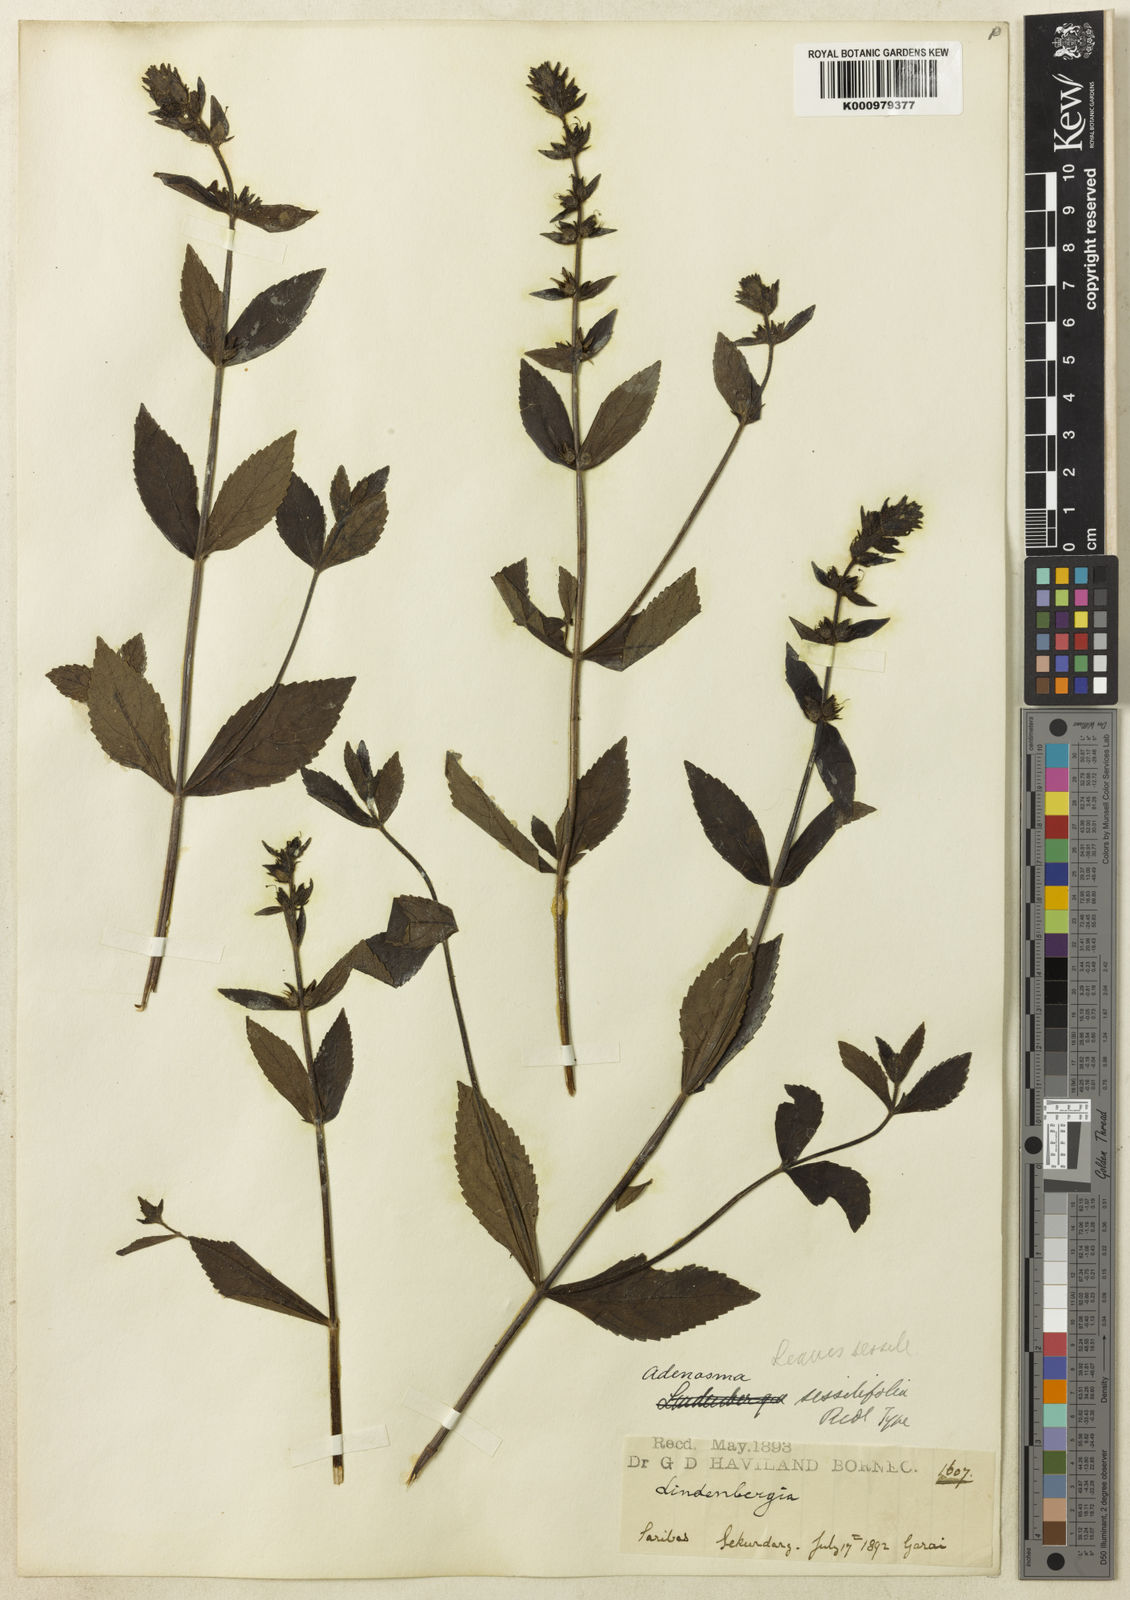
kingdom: Plantae
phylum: Tracheophyta
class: Magnoliopsida
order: Lamiales
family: Plantaginaceae
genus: Adenosma
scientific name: Adenosma
